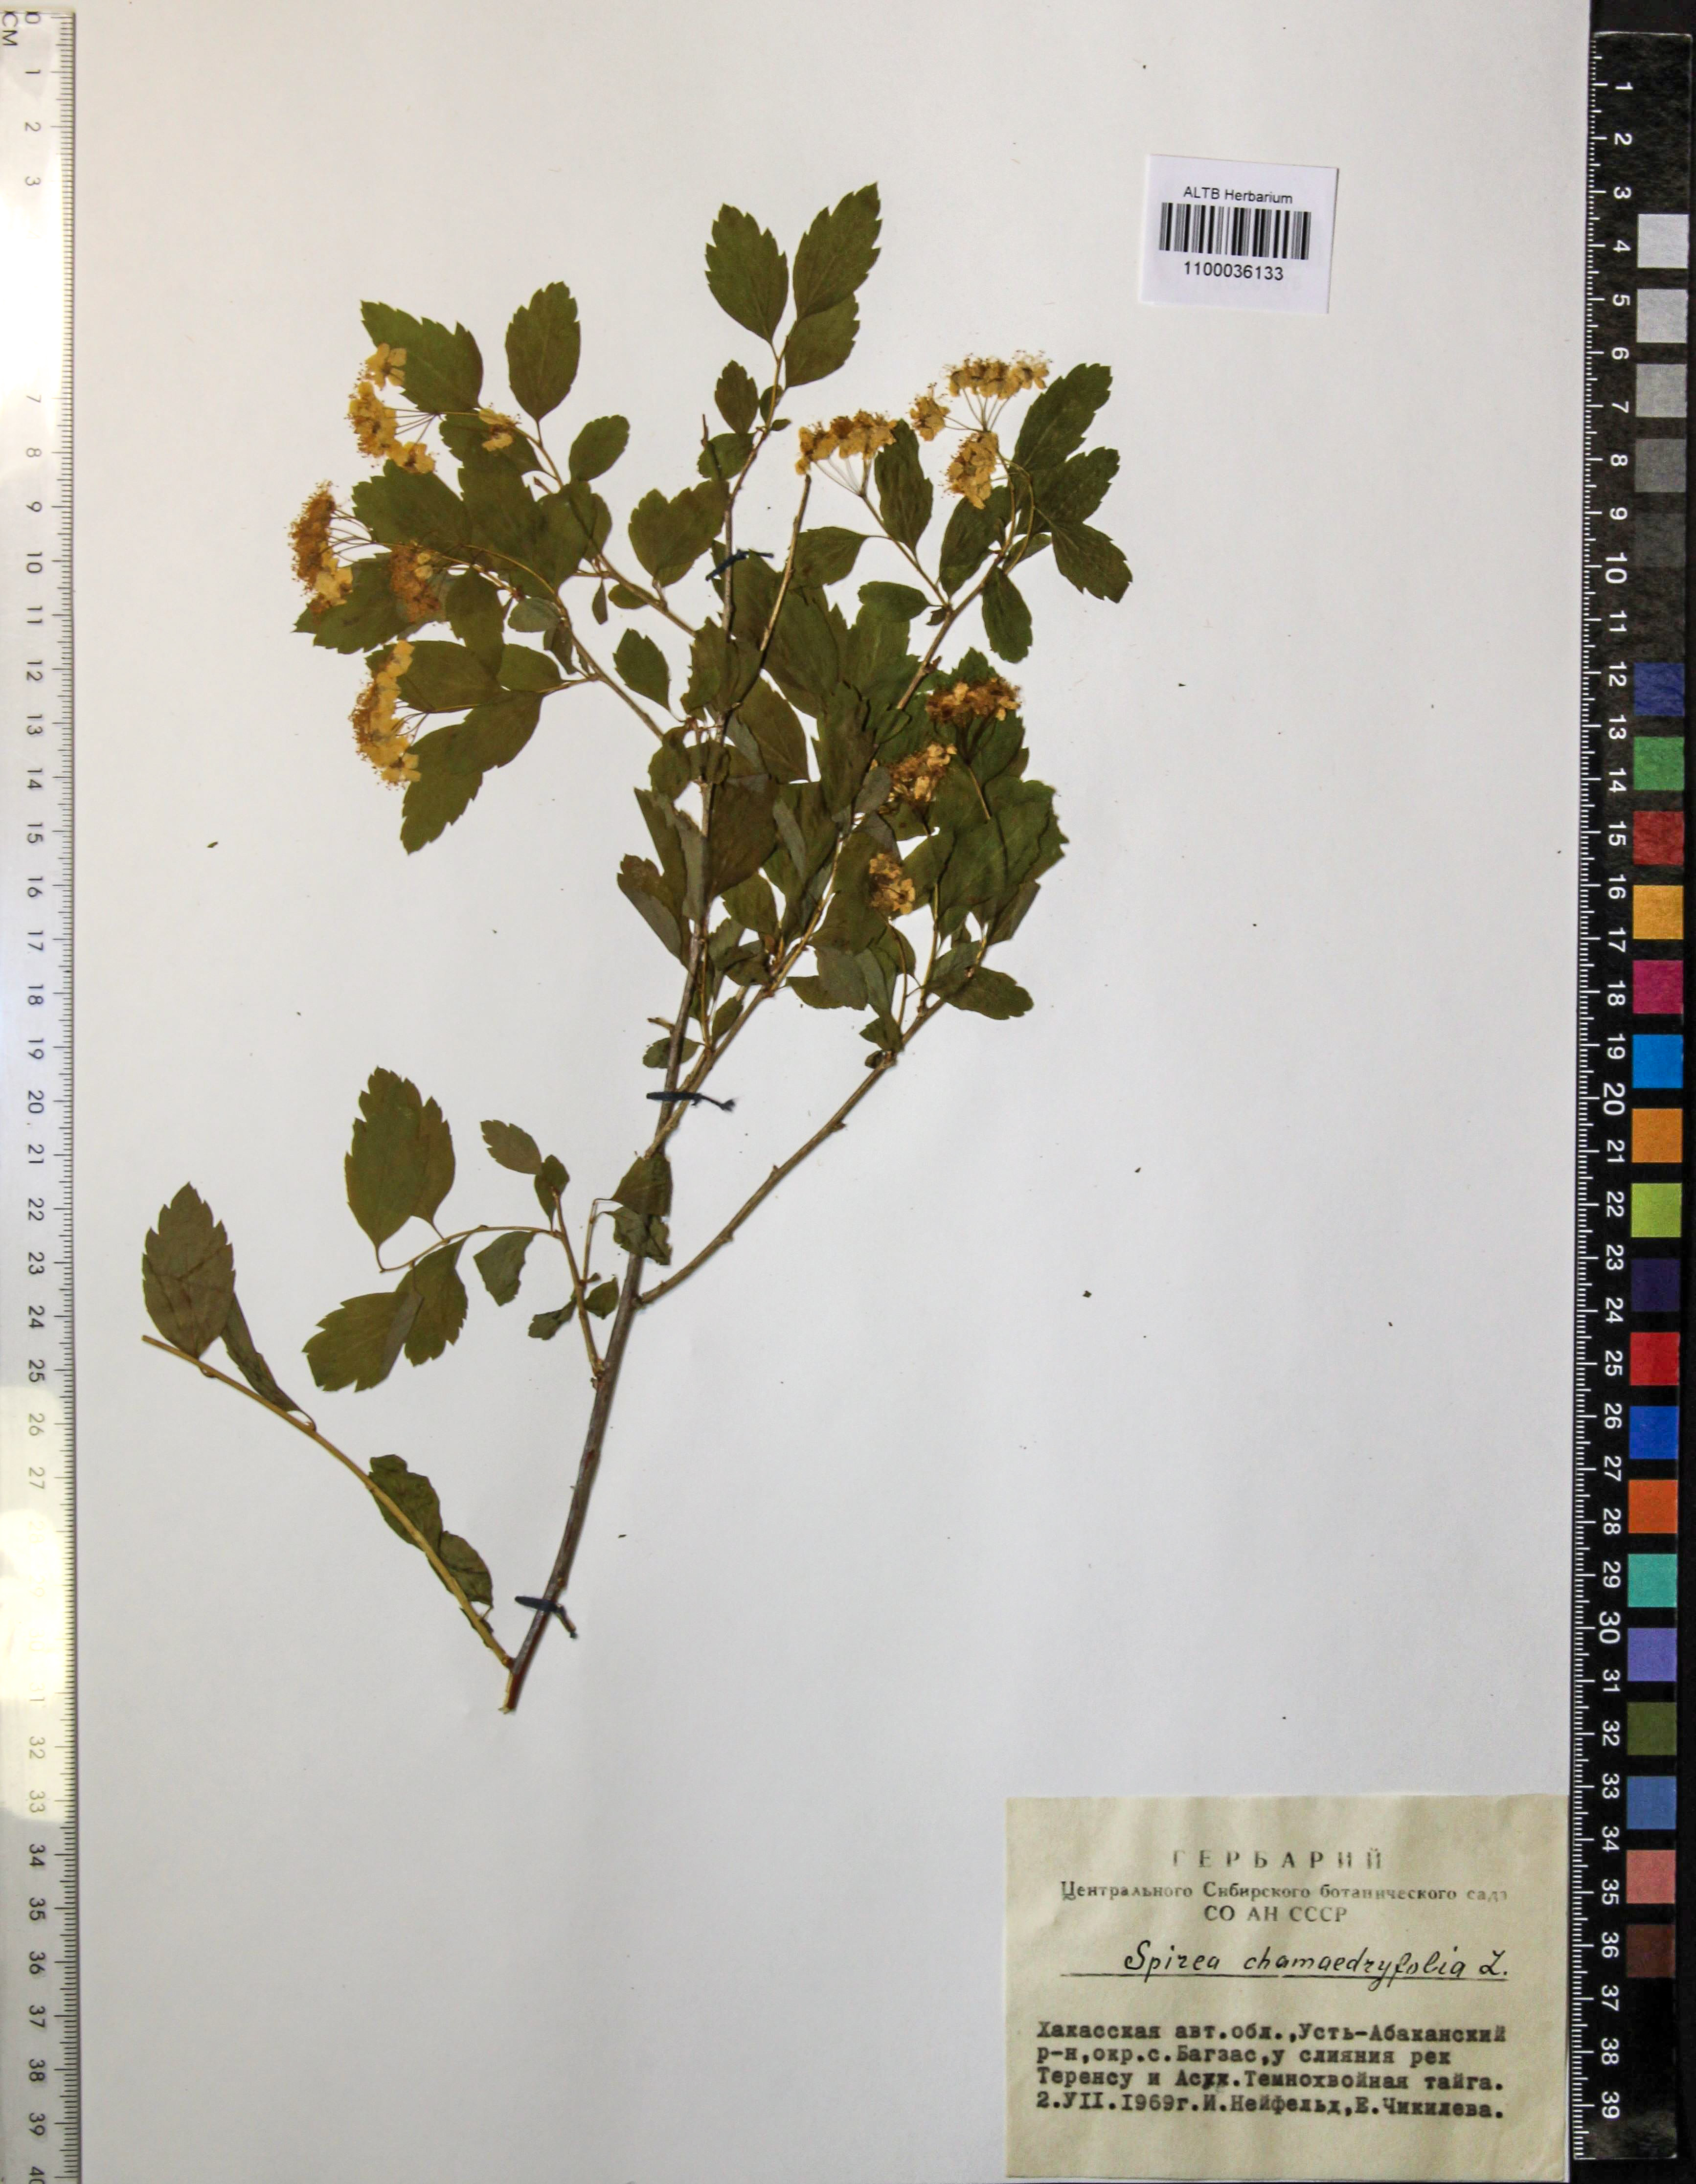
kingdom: Plantae
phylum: Tracheophyta
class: Magnoliopsida
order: Rosales
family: Rosaceae
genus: Spiraea
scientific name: Spiraea chamaedryfolia
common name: Elm-leaved spiraea
